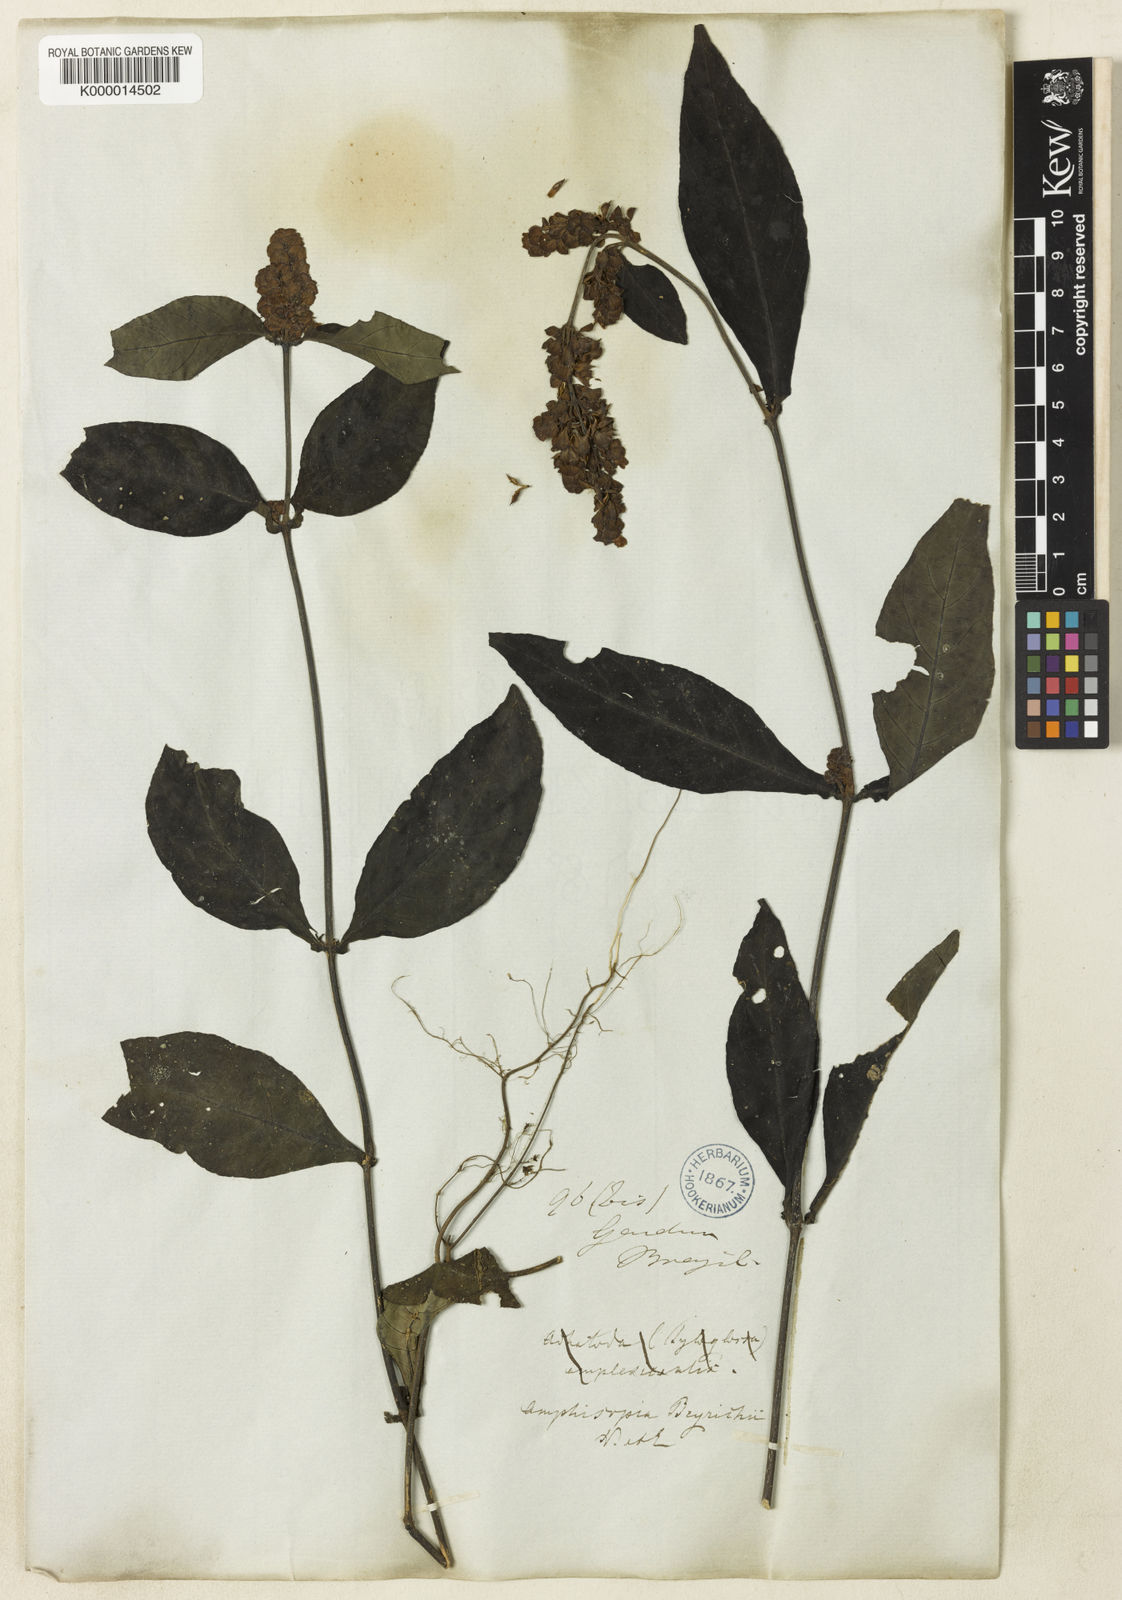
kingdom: Plantae
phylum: Tracheophyta
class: Magnoliopsida
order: Lamiales
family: Acanthaceae
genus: Dianthera
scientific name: Dianthera brasiliensis
